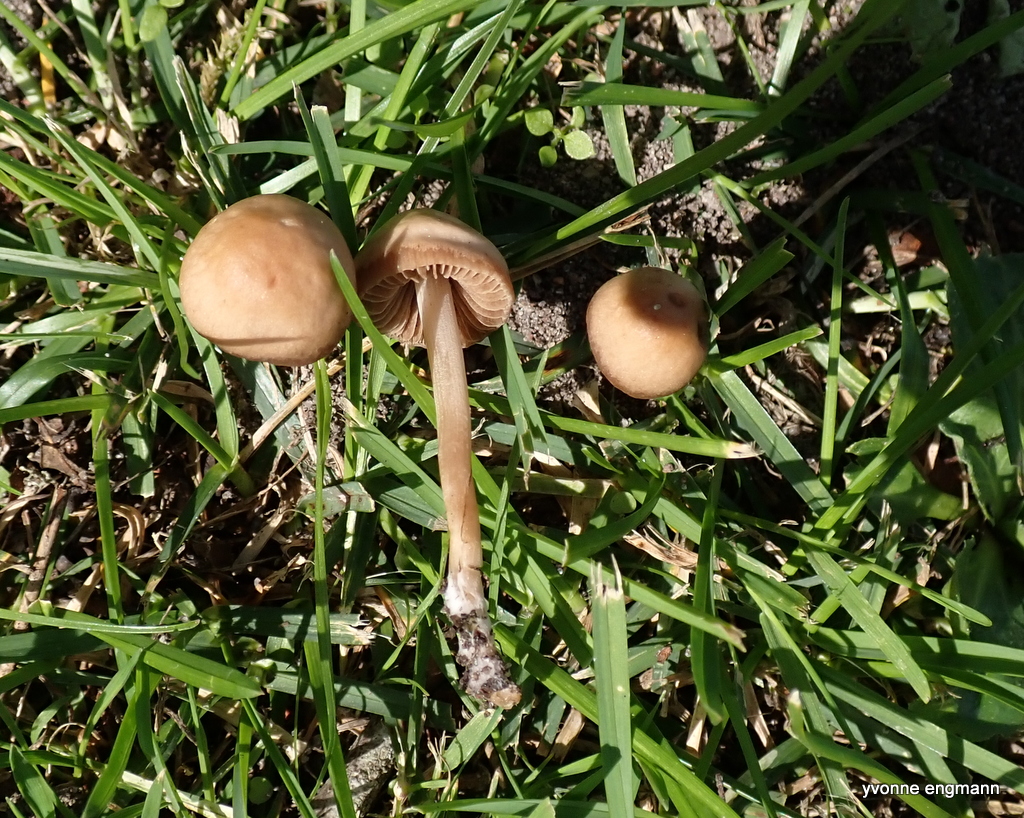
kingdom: Fungi
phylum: Basidiomycota
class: Agaricomycetes
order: Agaricales
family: Marasmiaceae
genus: Marasmius
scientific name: Marasmius oreades
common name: elledans-bruskhat
